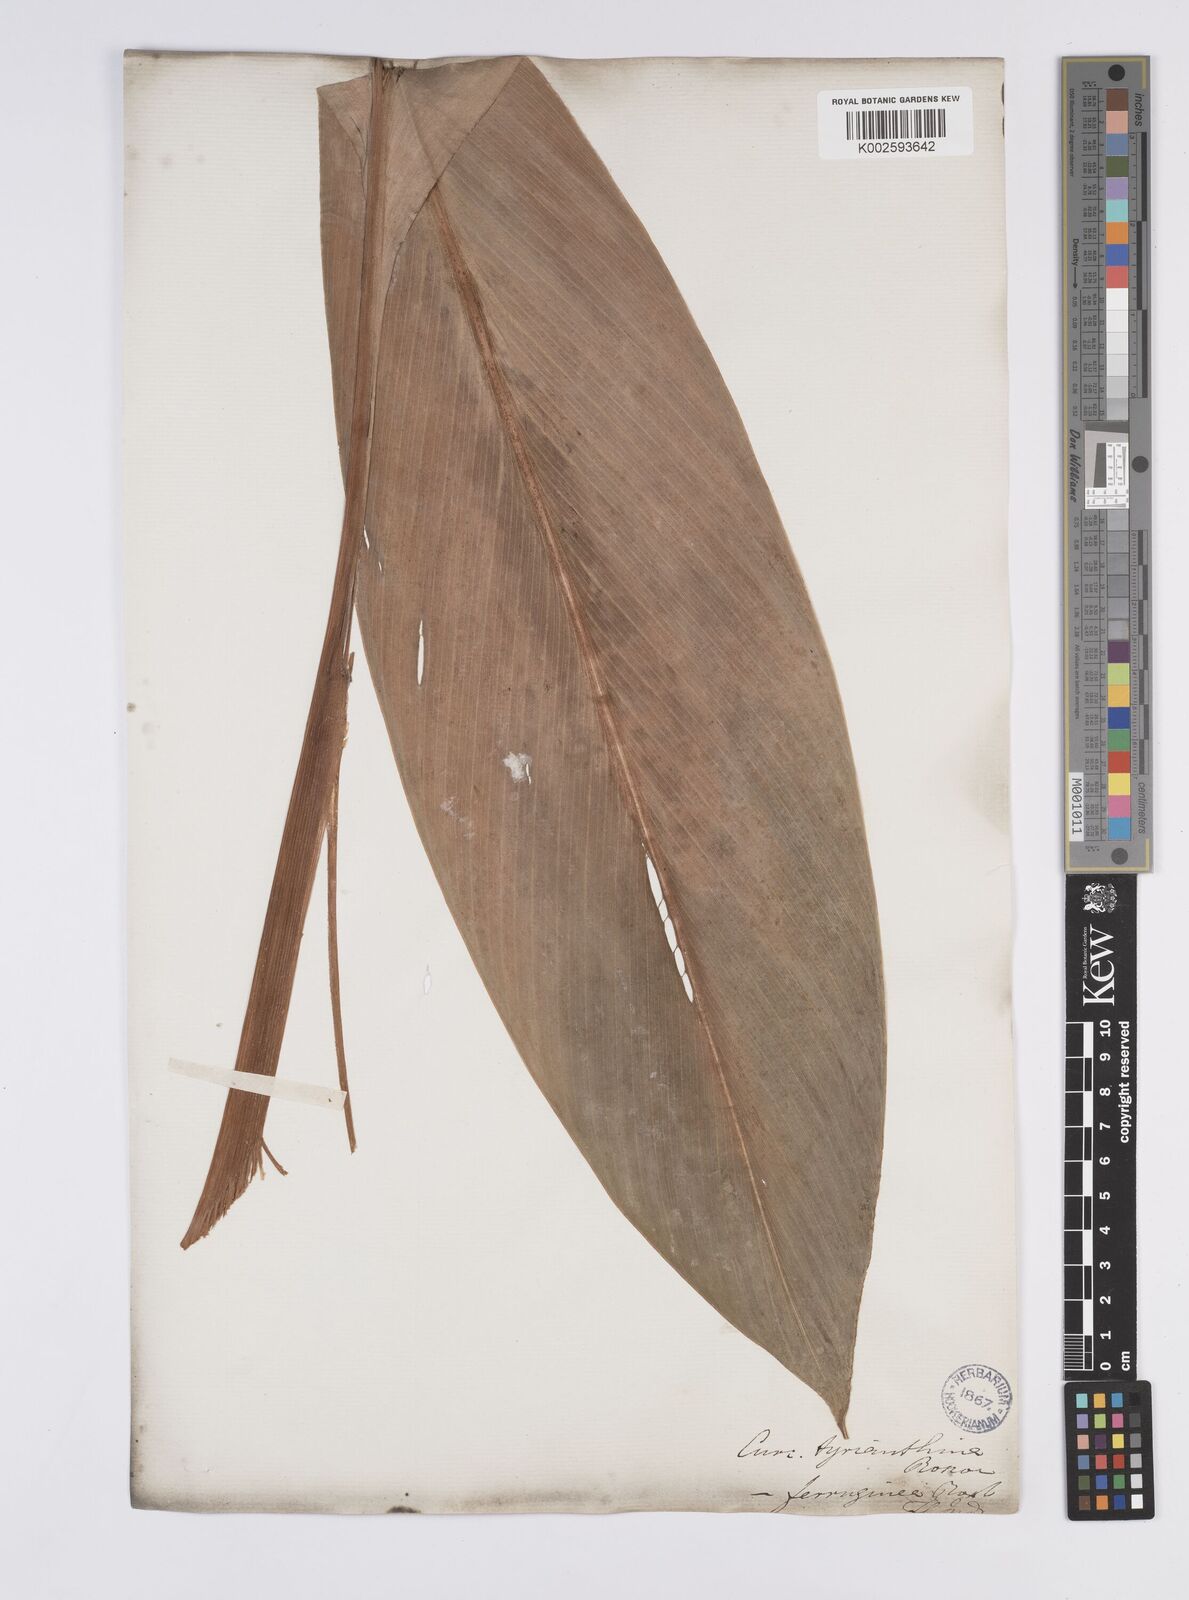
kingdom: Plantae
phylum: Tracheophyta
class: Liliopsida
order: Zingiberales
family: Zingiberaceae
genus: Curcuma
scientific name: Curcuma ferruginea
